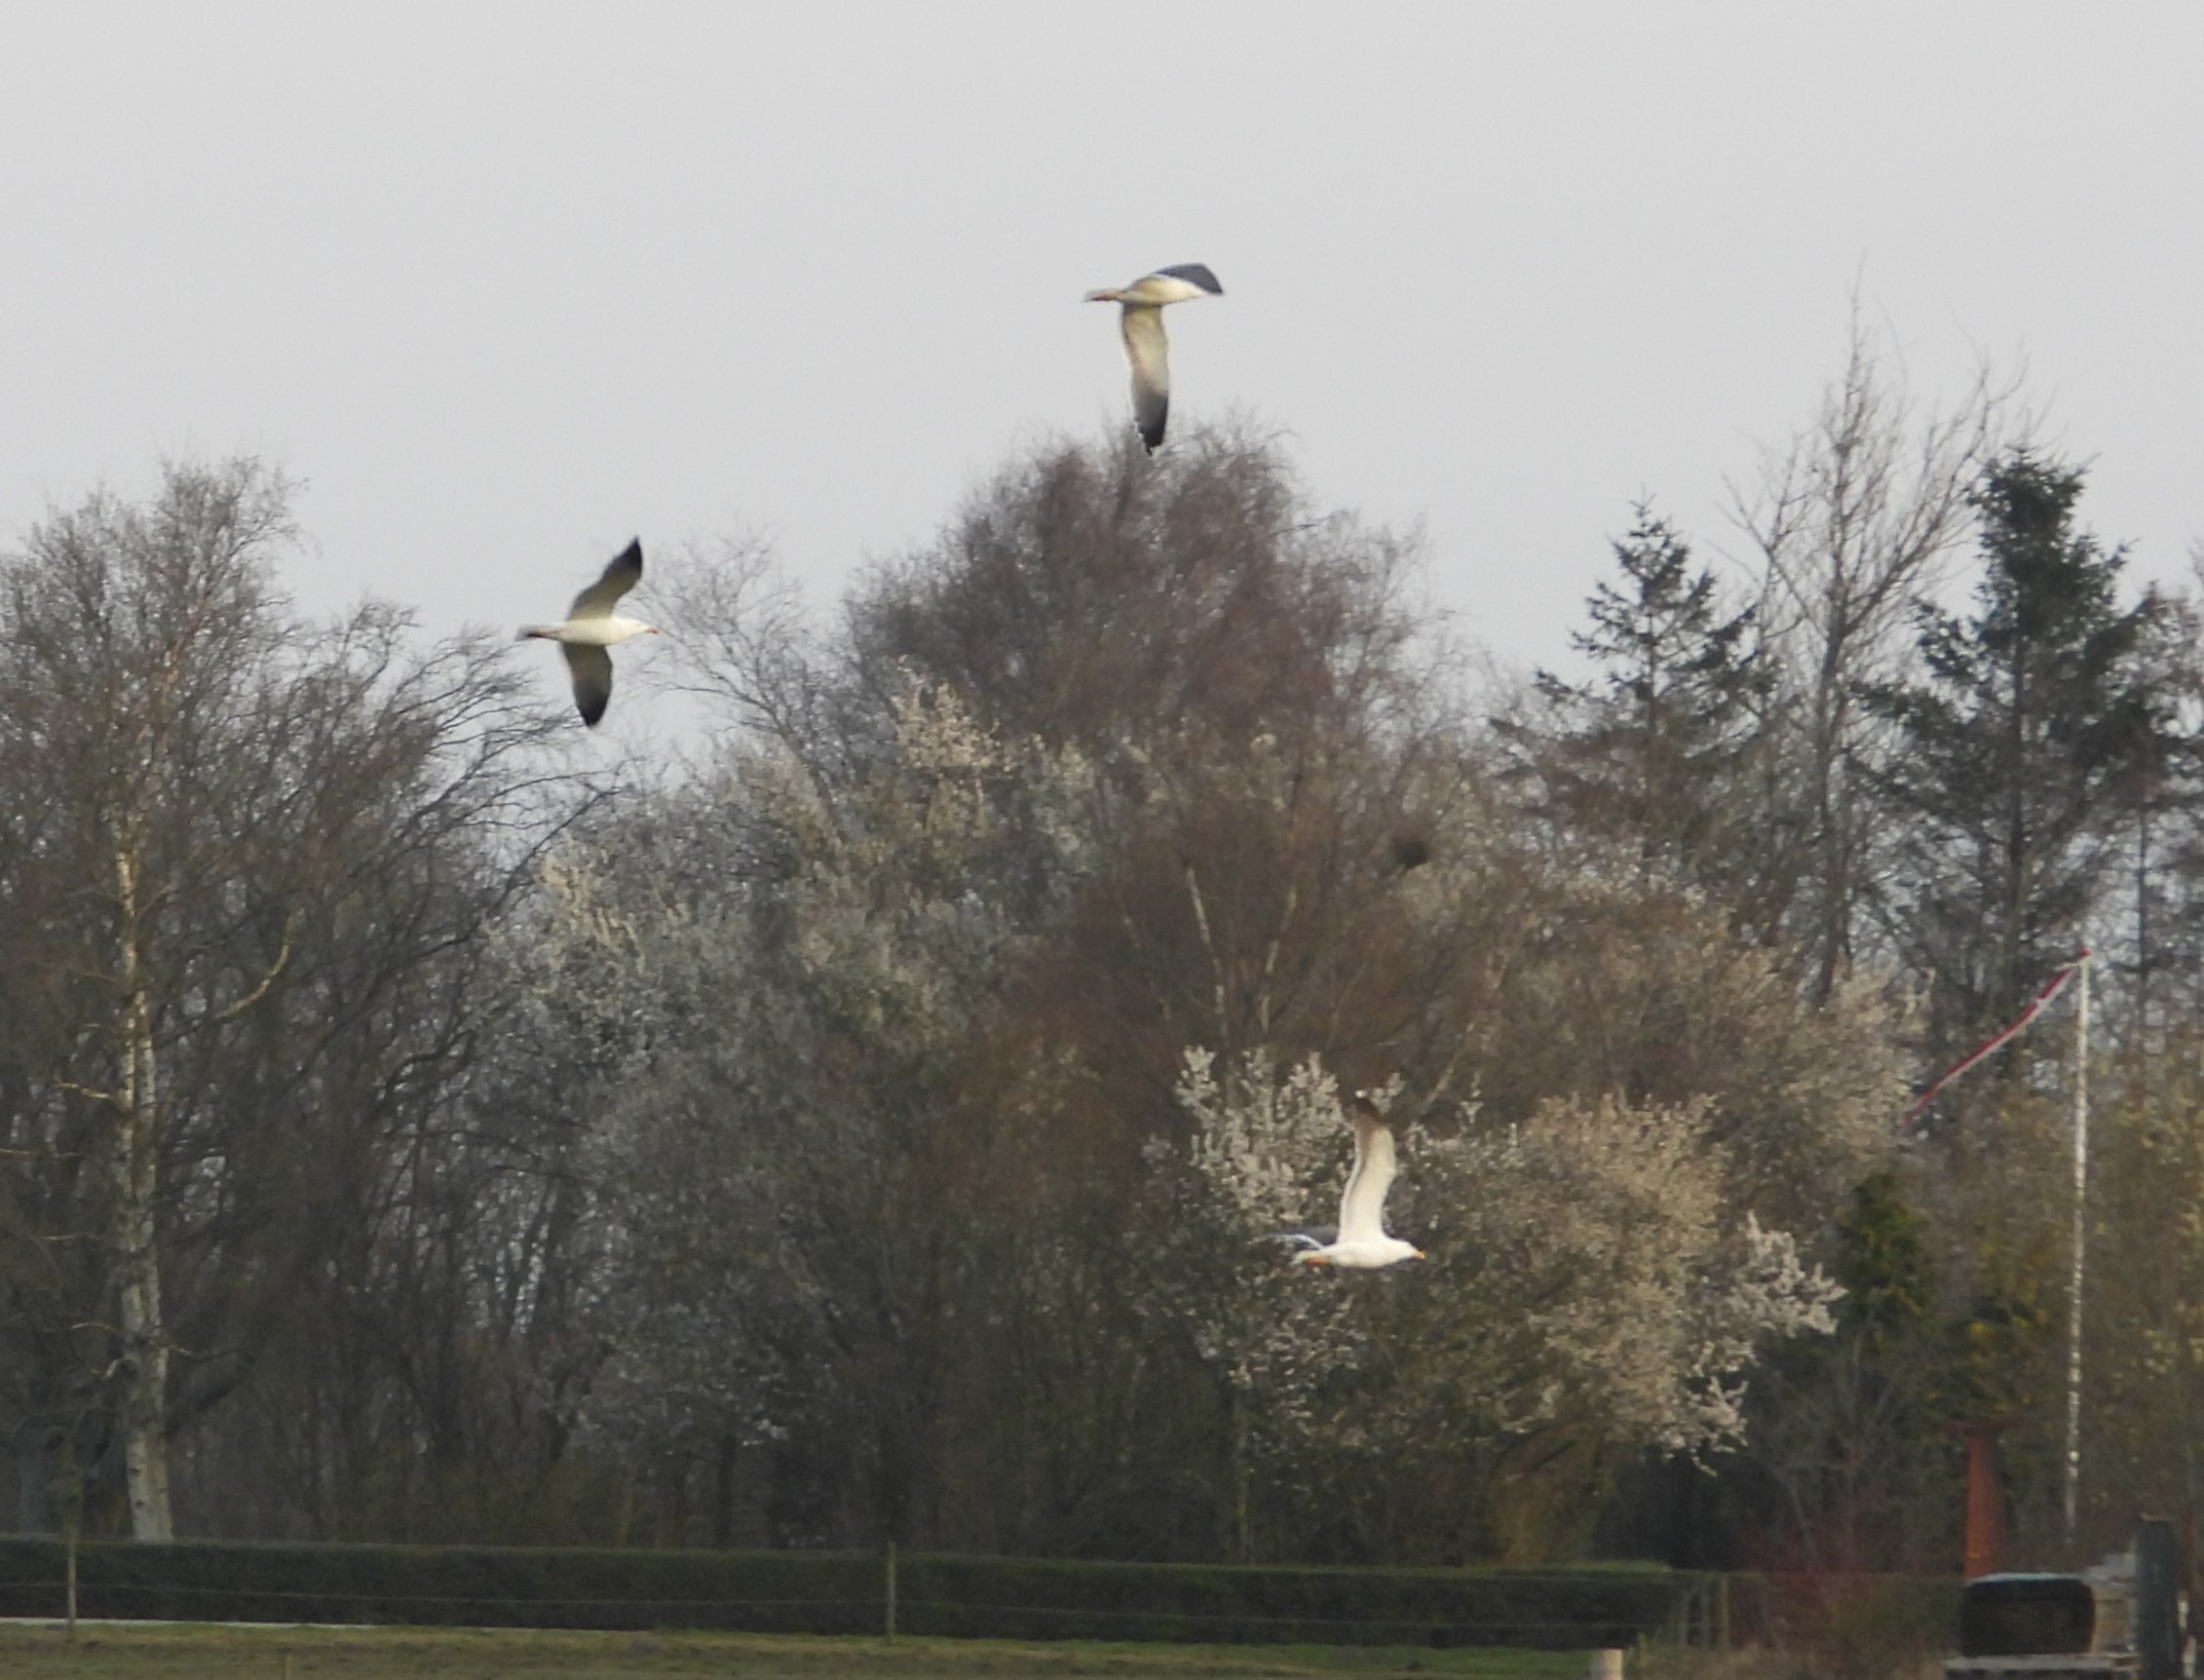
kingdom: Animalia
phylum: Chordata
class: Aves
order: Charadriiformes
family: Laridae
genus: Larus
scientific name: Larus fuscus
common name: Sildemåge
